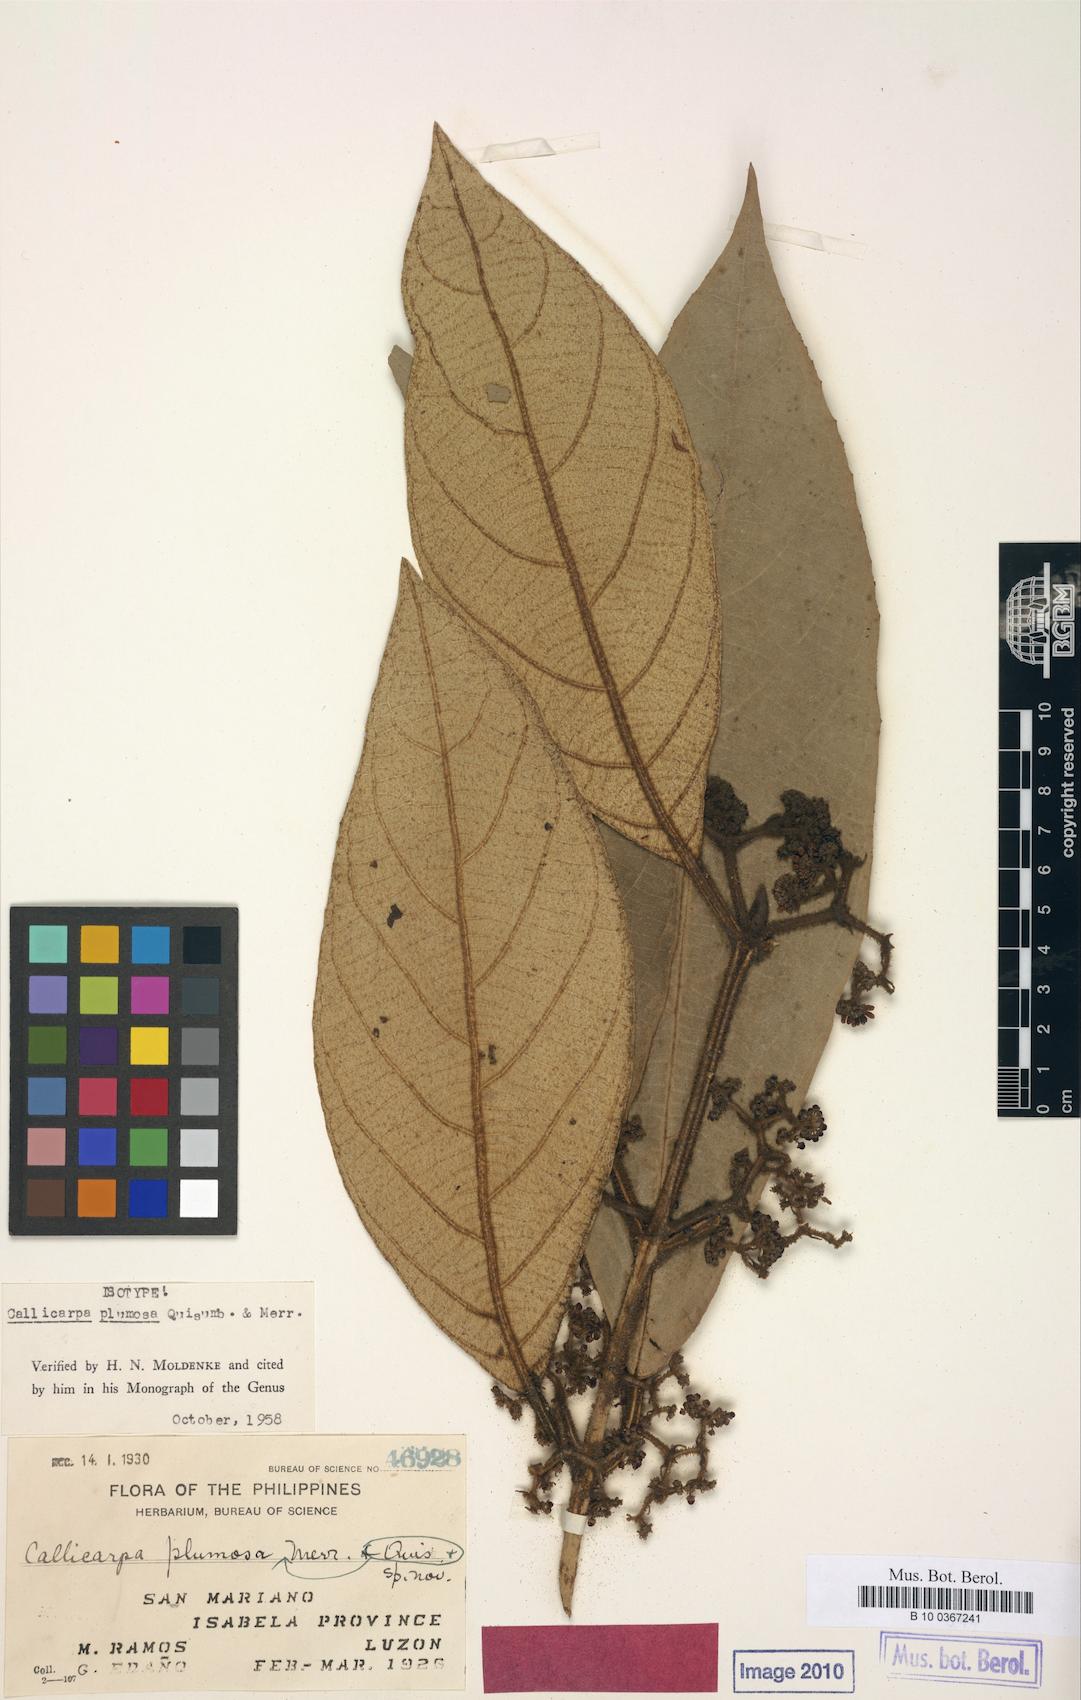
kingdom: Plantae
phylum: Tracheophyta
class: Magnoliopsida
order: Lamiales
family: Lamiaceae
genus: Callicarpa
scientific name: Callicarpa plumosa
